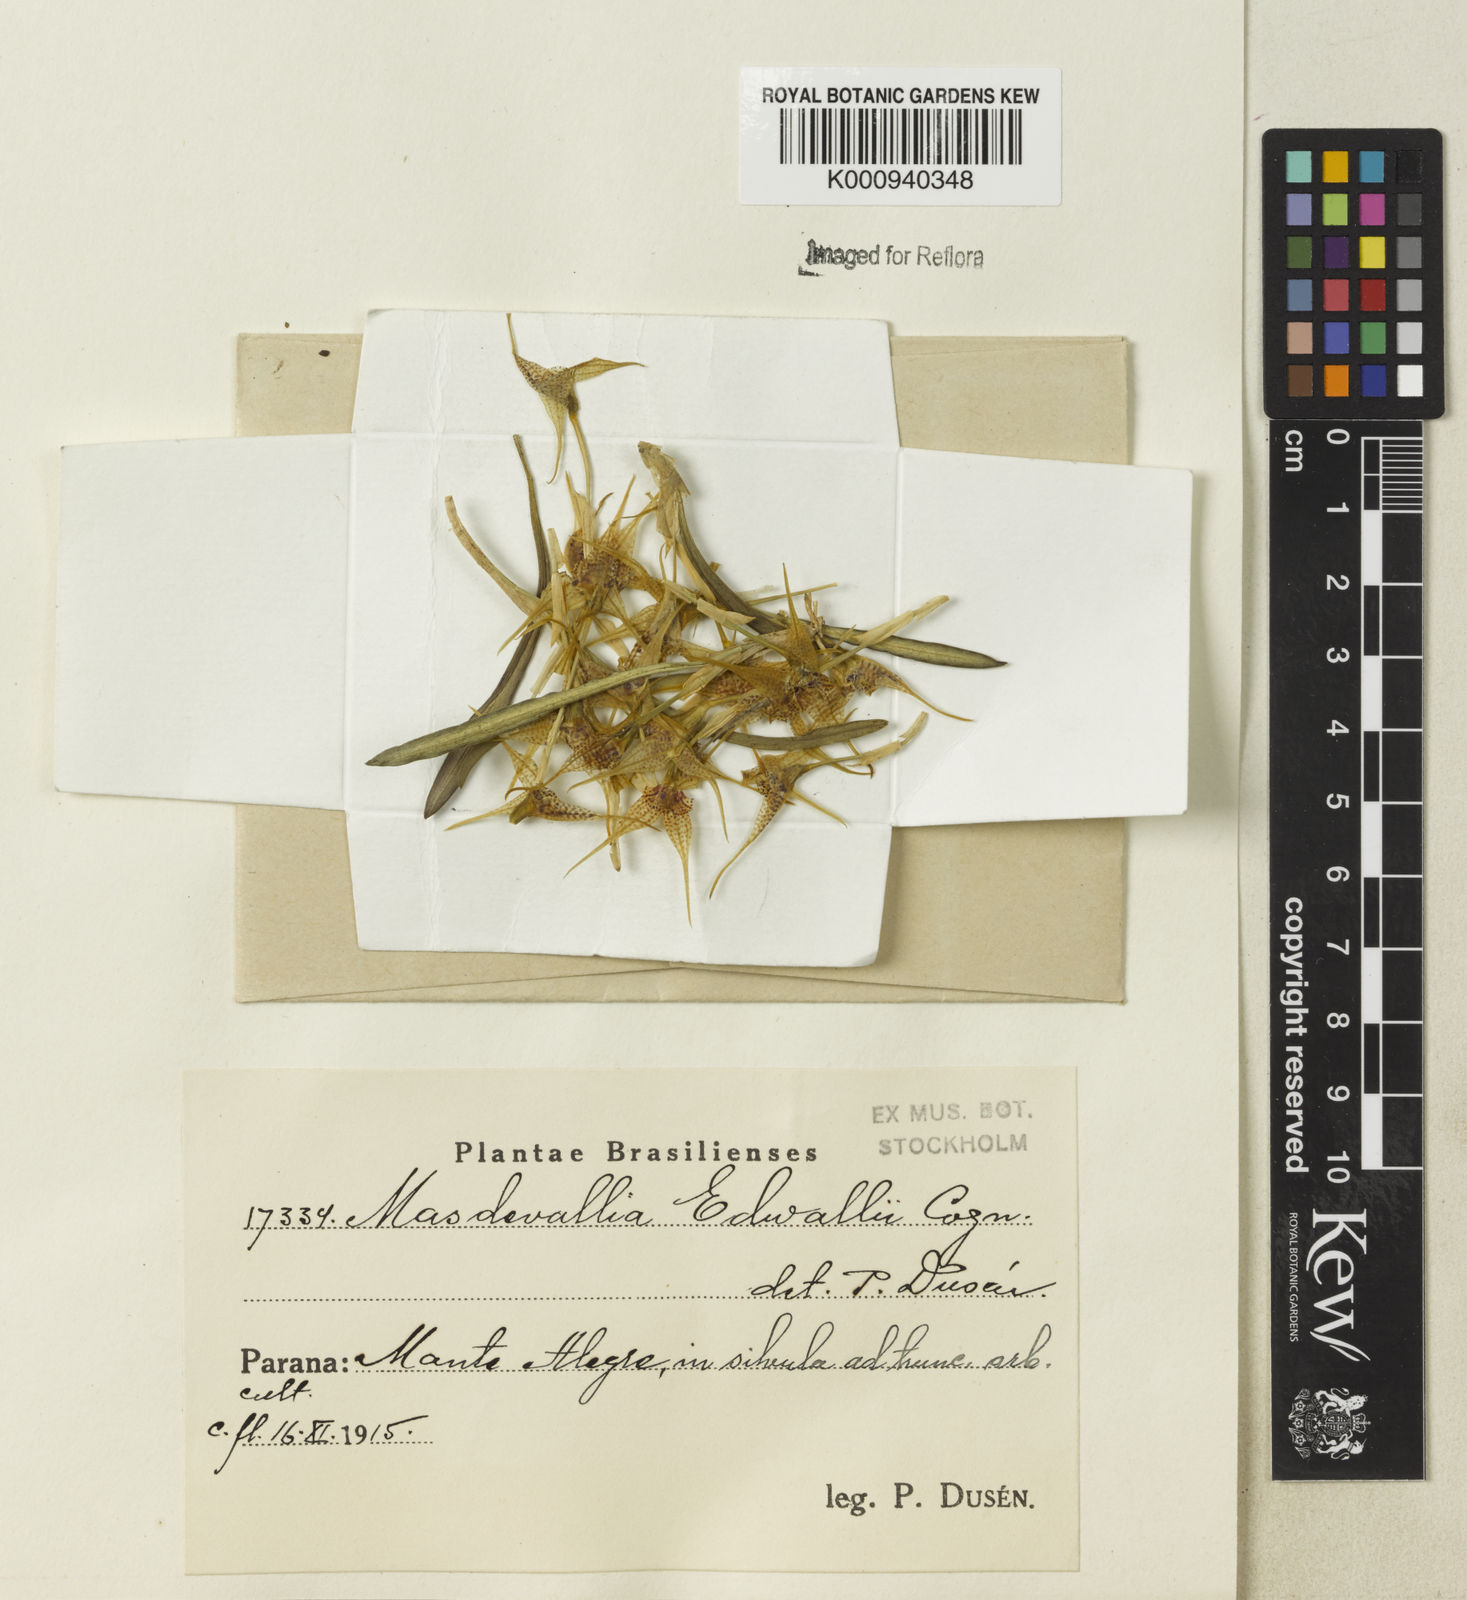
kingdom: Plantae
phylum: Tracheophyta
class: Liliopsida
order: Asparagales
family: Orchidaceae
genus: Dryadella
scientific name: Dryadella edwallii
